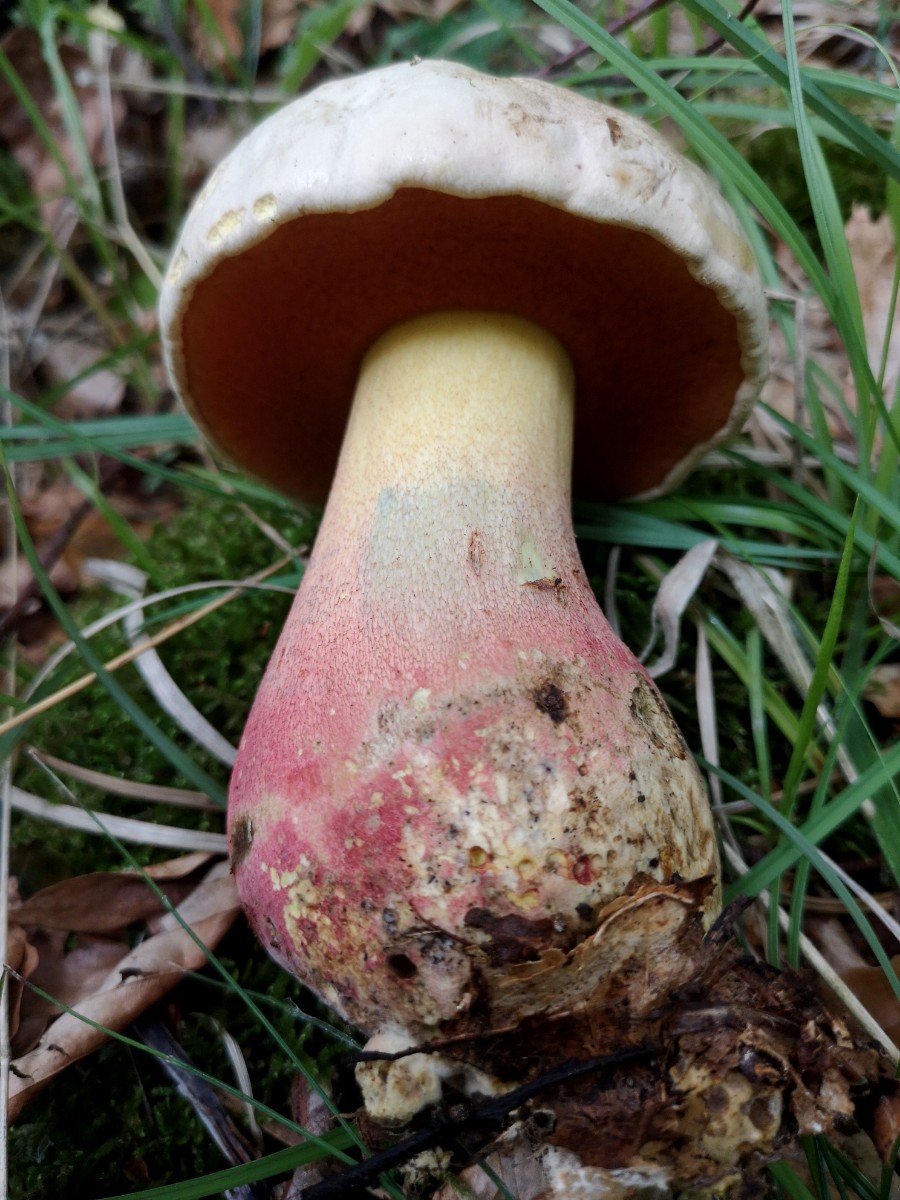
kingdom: Fungi
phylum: Basidiomycota
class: Agaricomycetes
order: Boletales
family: Boletaceae
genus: Rubroboletus
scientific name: Rubroboletus satanas
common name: Satans rørhat
